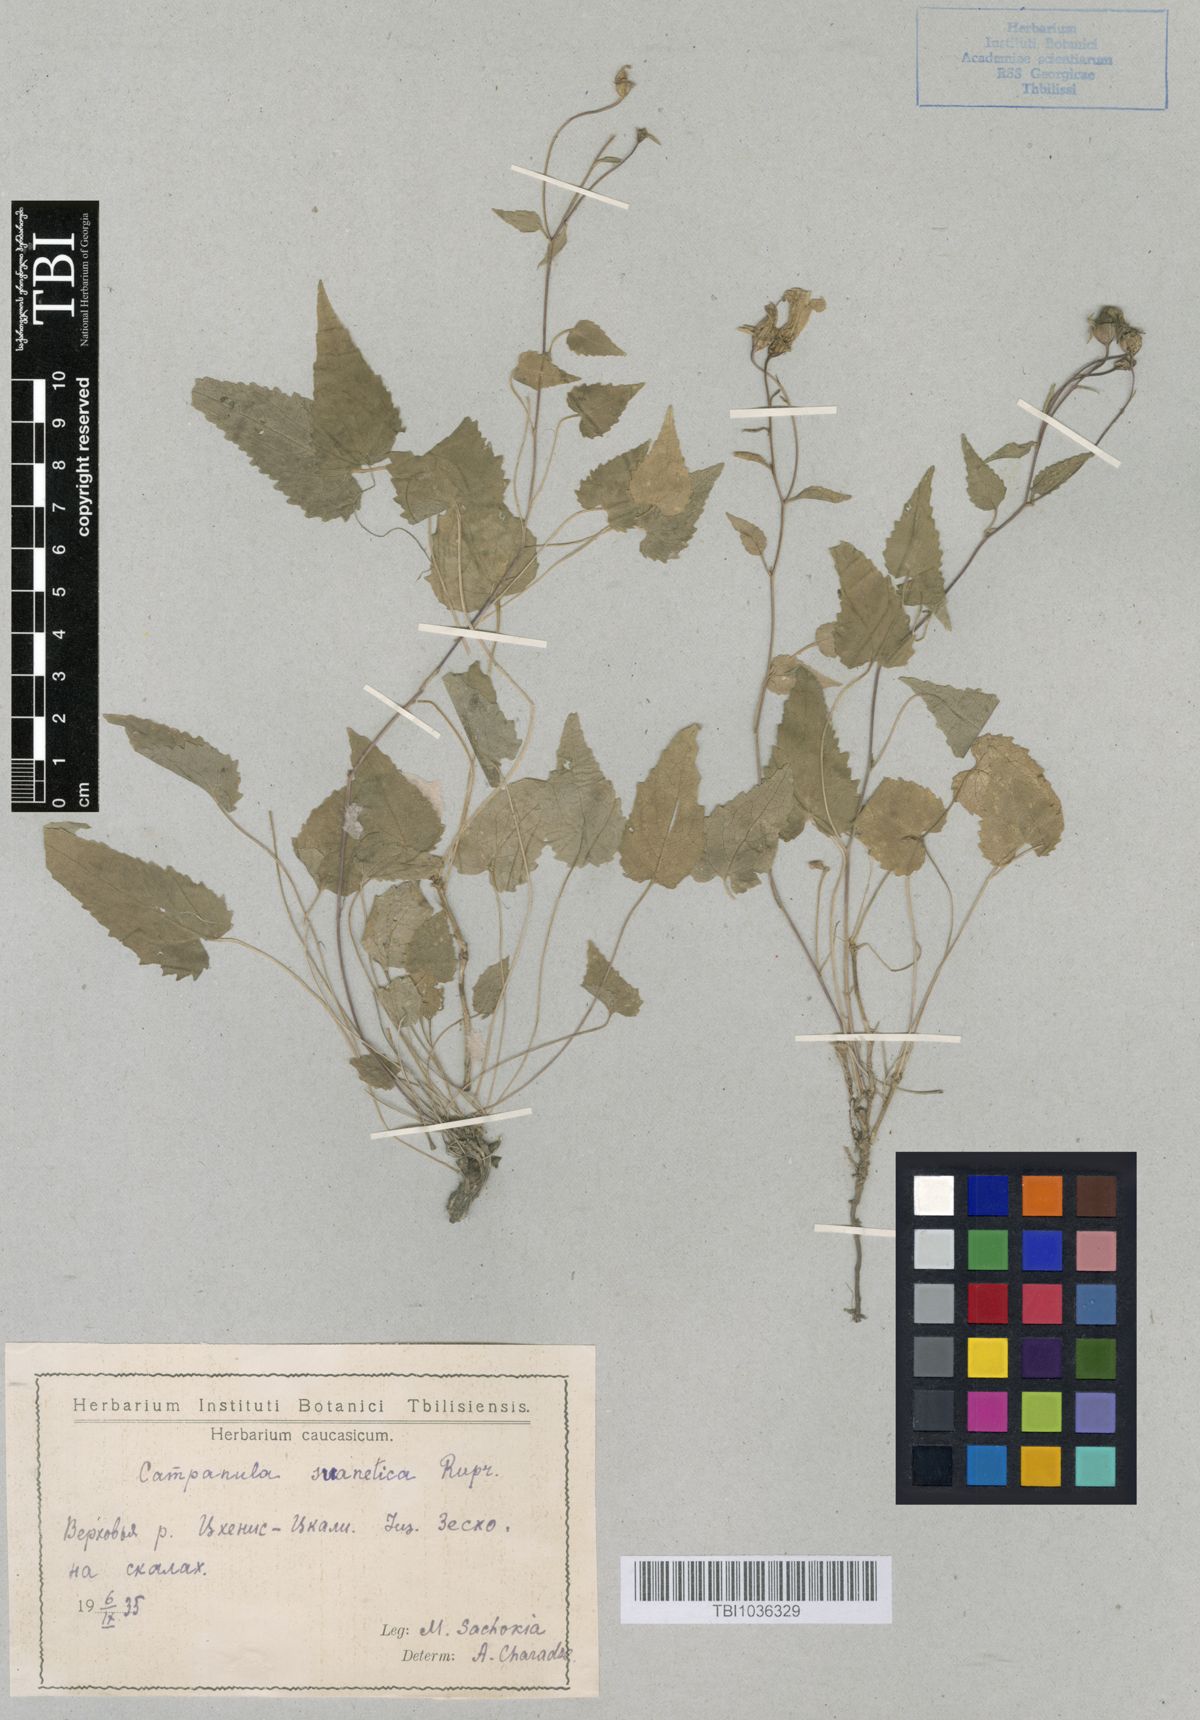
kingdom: Plantae
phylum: Tracheophyta
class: Magnoliopsida
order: Asterales
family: Campanulaceae
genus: Campanula
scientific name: Campanula suanetica
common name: Svanetian bellflower
